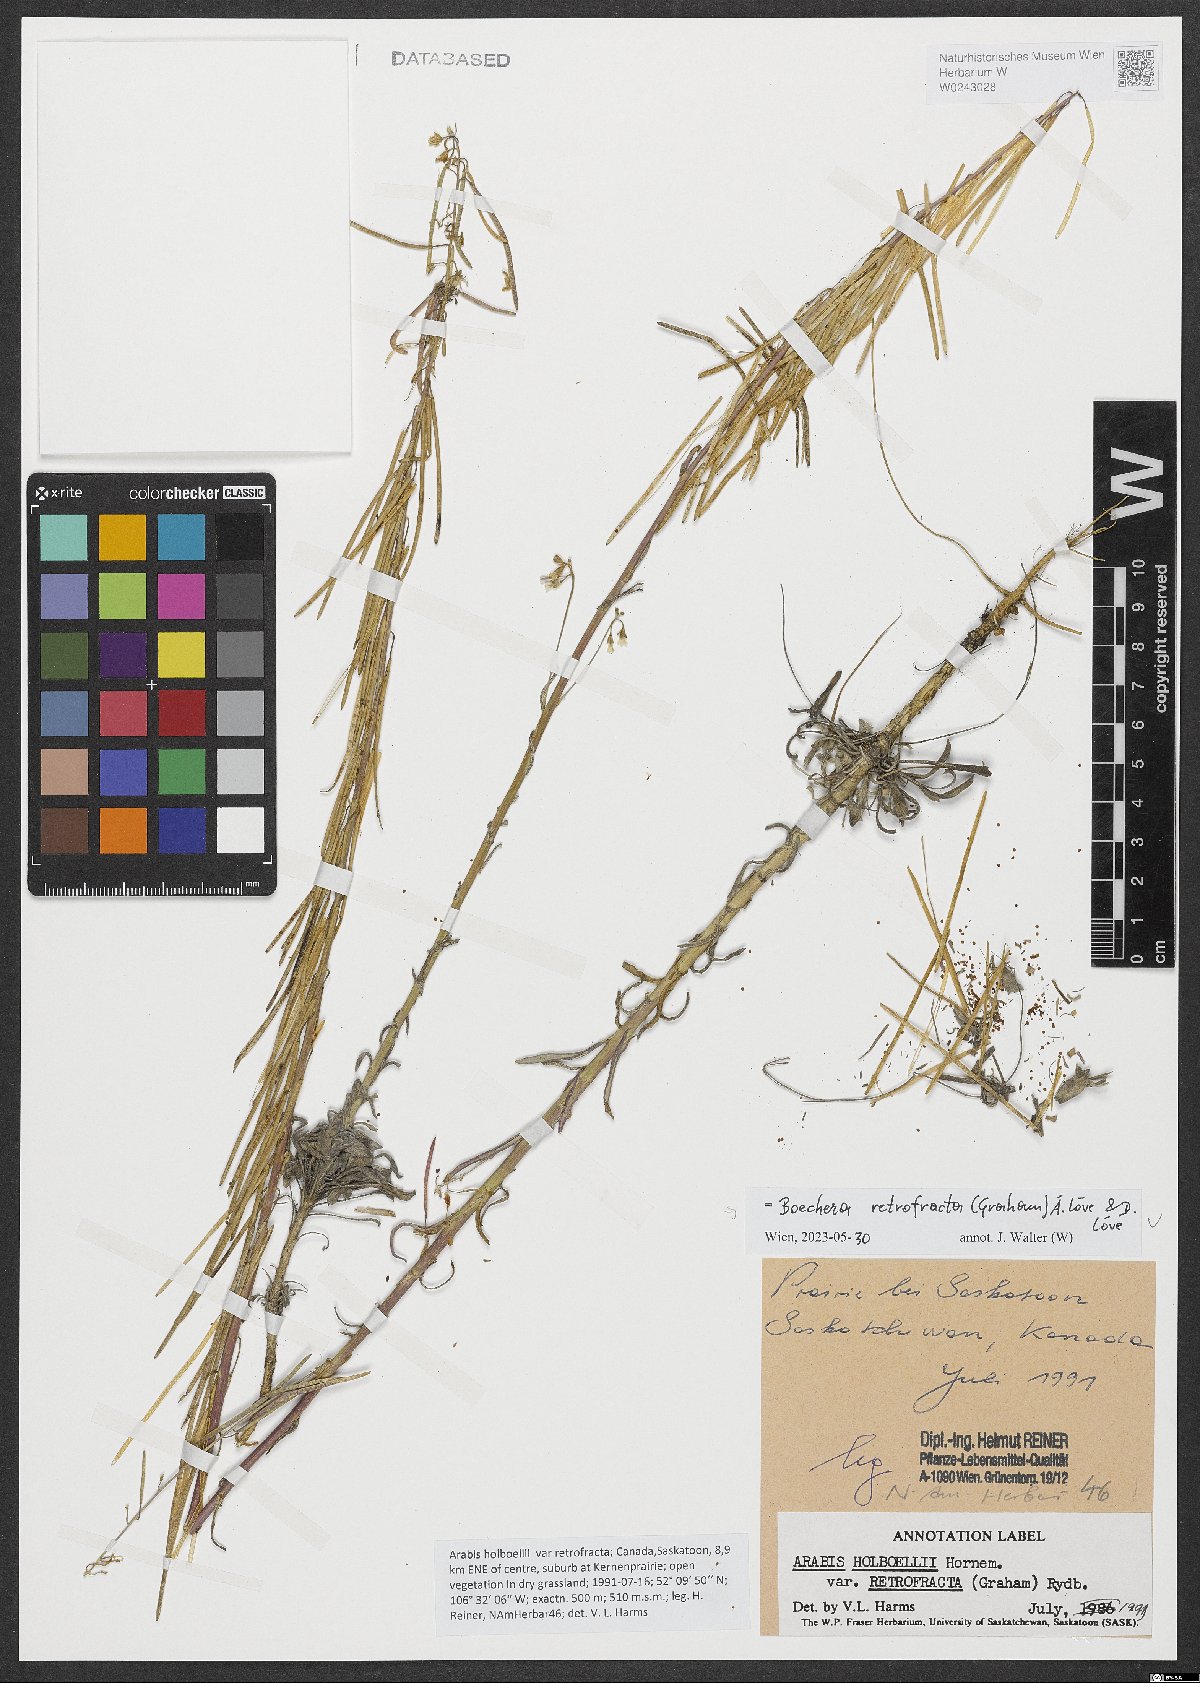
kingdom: Plantae
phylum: Tracheophyta
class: Magnoliopsida
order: Brassicales
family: Brassicaceae
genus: Boechera
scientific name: Boechera retrofracta
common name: Dangling suncress
